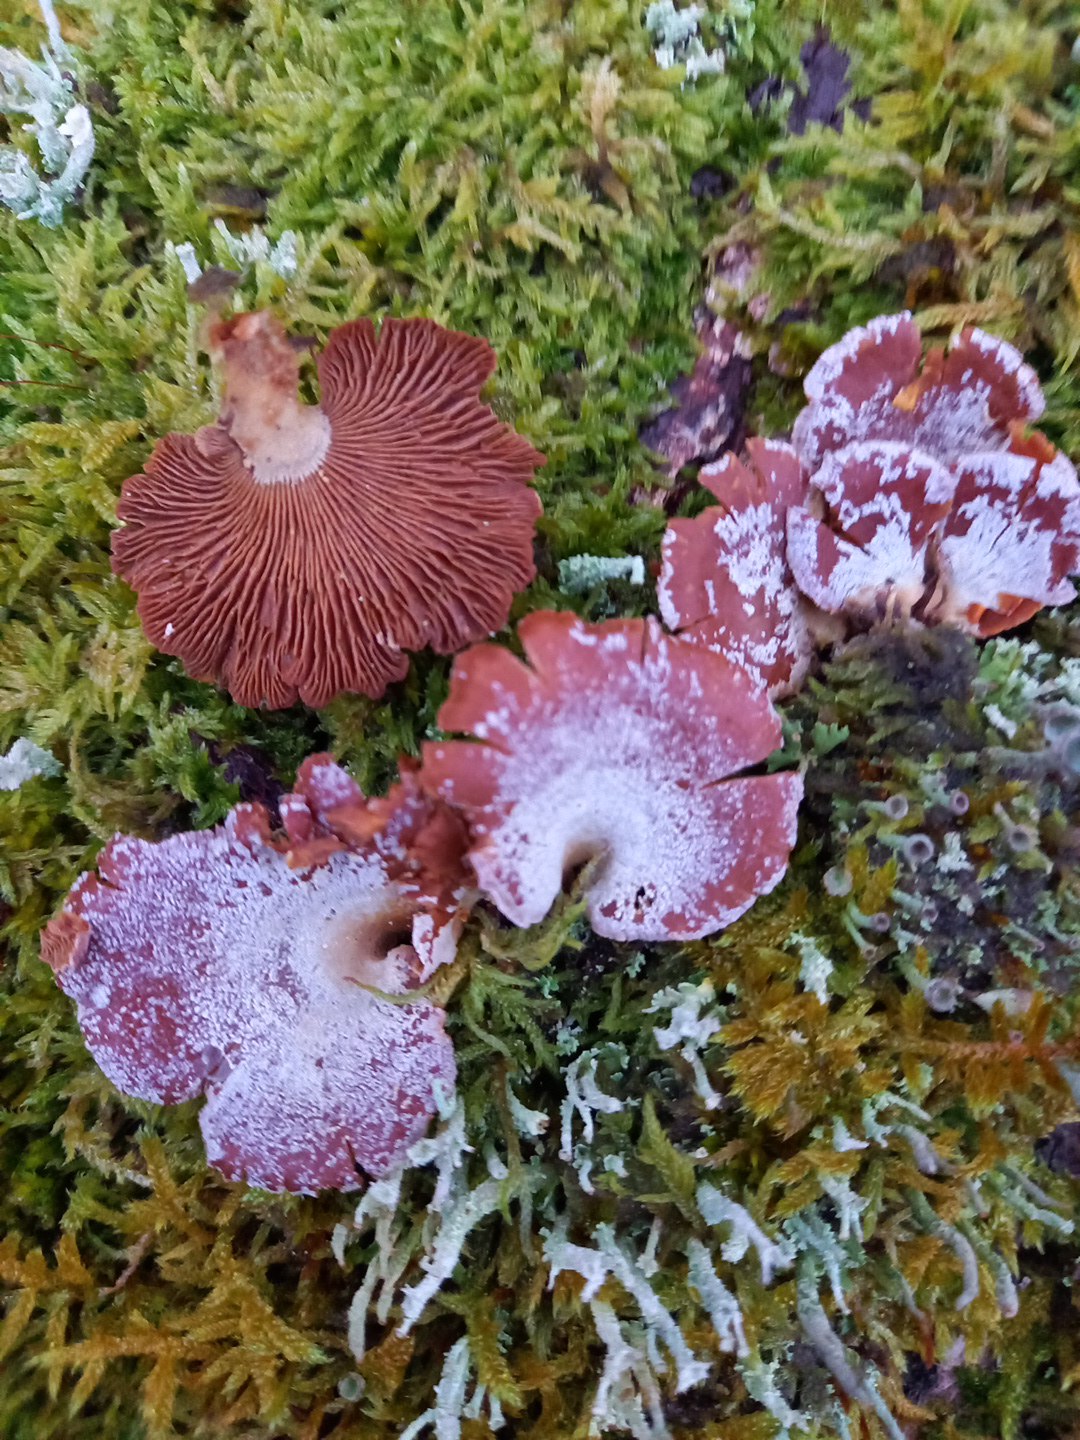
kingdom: Fungi
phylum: Basidiomycota
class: Agaricomycetes
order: Agaricales
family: Mycenaceae
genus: Panellus
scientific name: Panellus stipticus
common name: kliddet epaulethat
